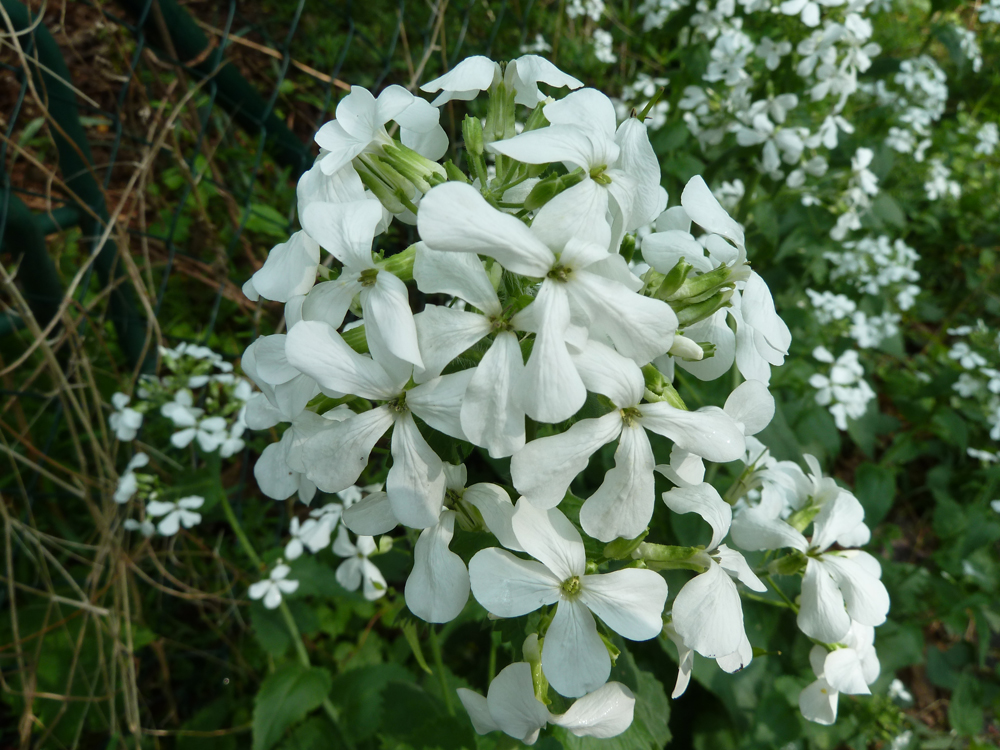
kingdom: Plantae
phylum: Tracheophyta
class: Magnoliopsida
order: Brassicales
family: Brassicaceae
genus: Lunaria
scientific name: Lunaria annua
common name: Honesty
